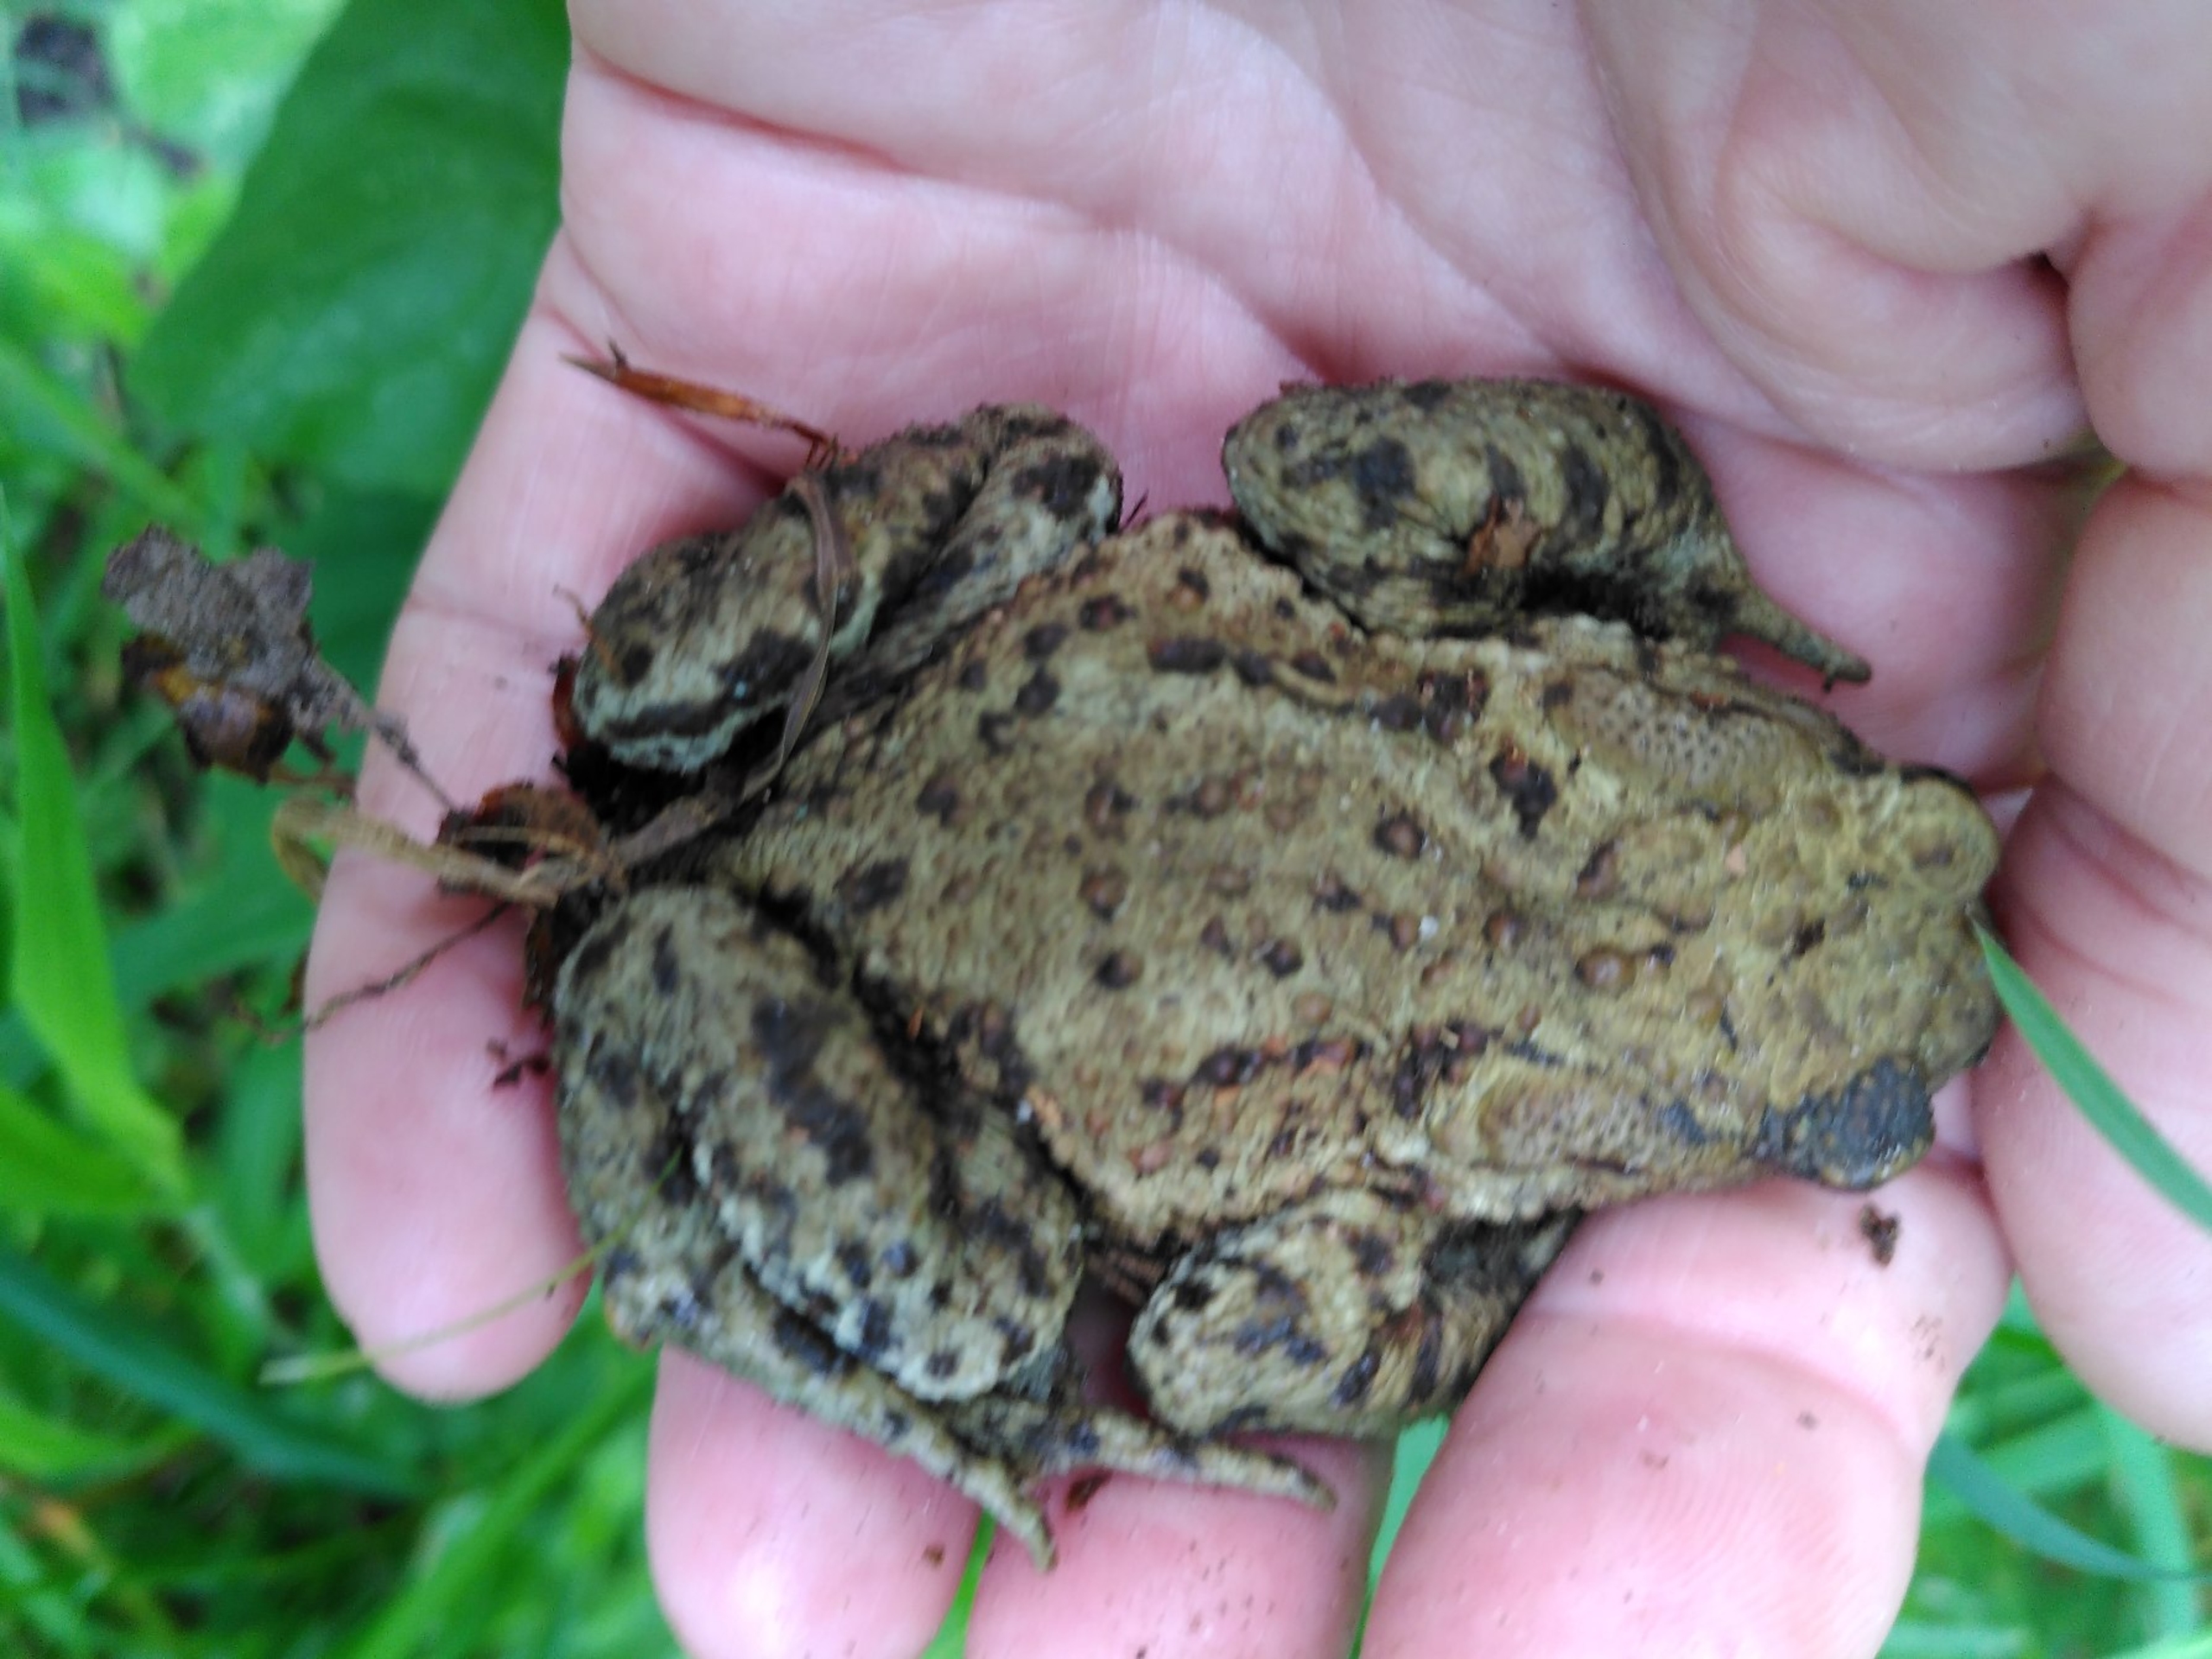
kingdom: Animalia
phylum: Chordata
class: Amphibia
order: Anura
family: Bufonidae
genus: Bufo
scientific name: Bufo bufo
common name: Skrubtudse
